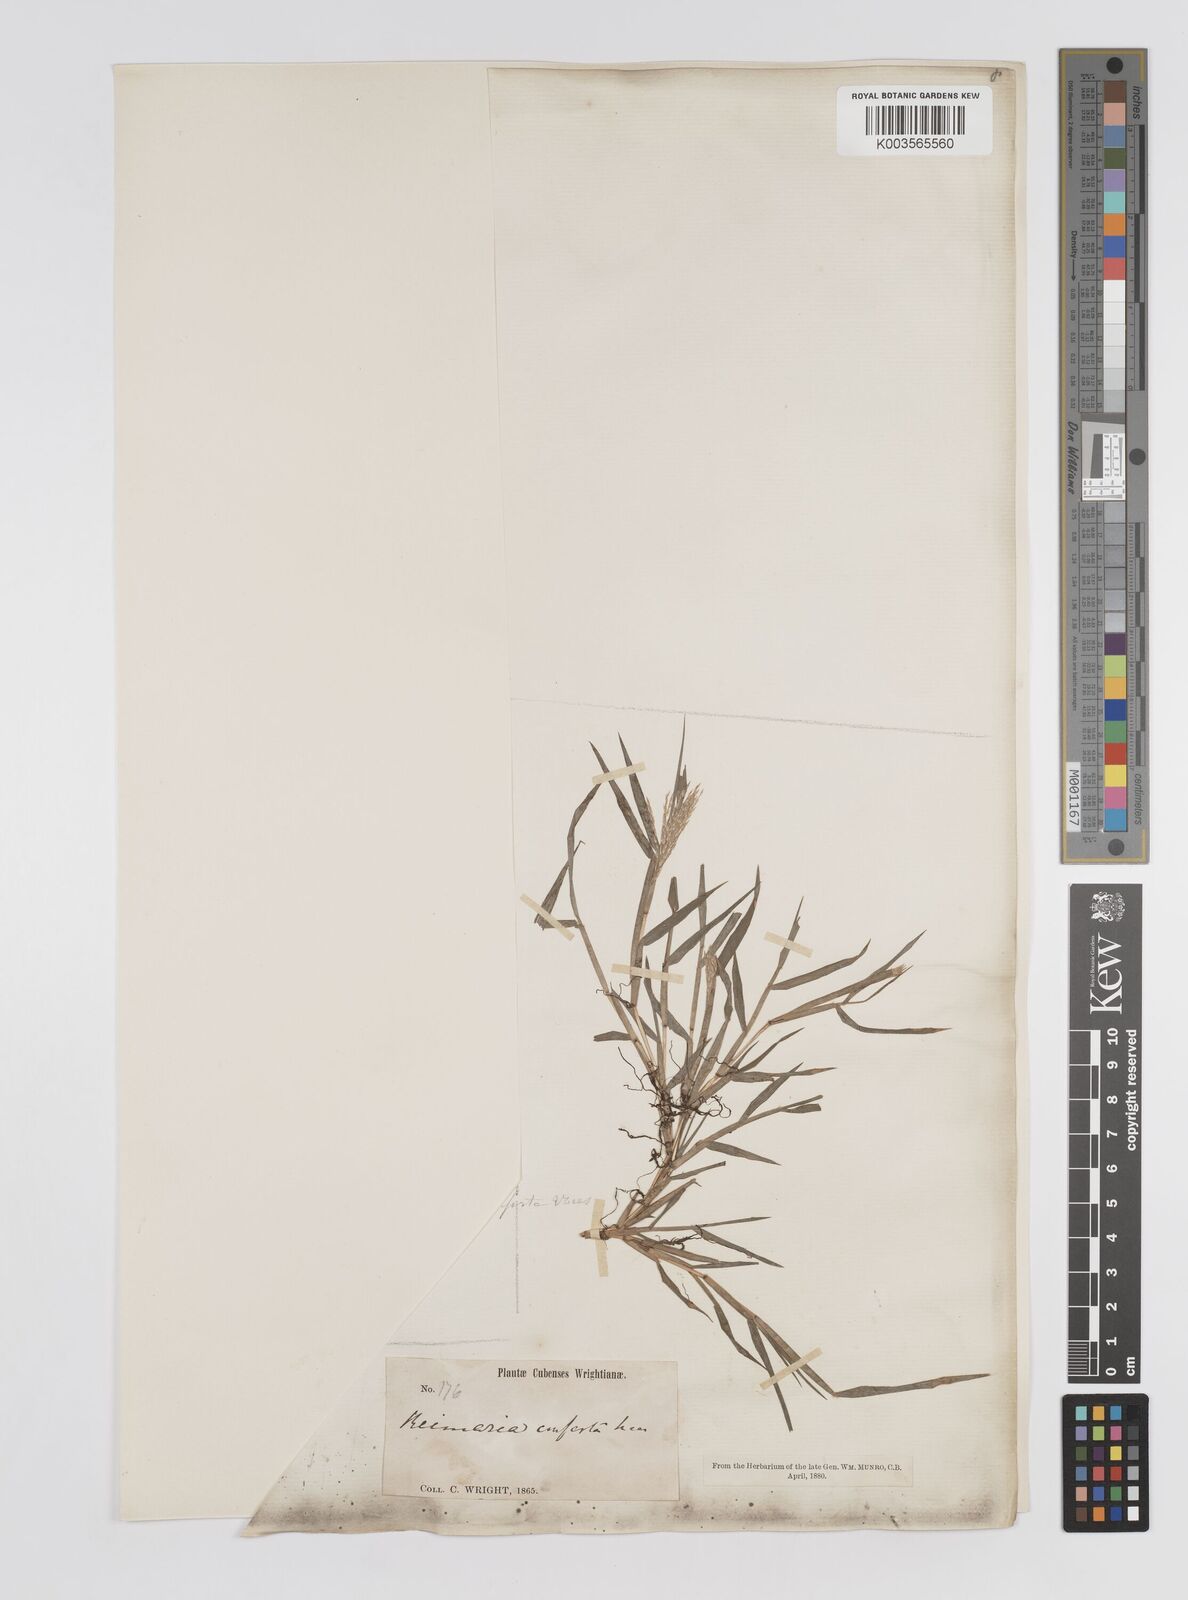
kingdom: Plantae
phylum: Tracheophyta
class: Liliopsida
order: Poales
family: Poaceae
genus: Paspalum
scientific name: Paspalum stagnophilum
